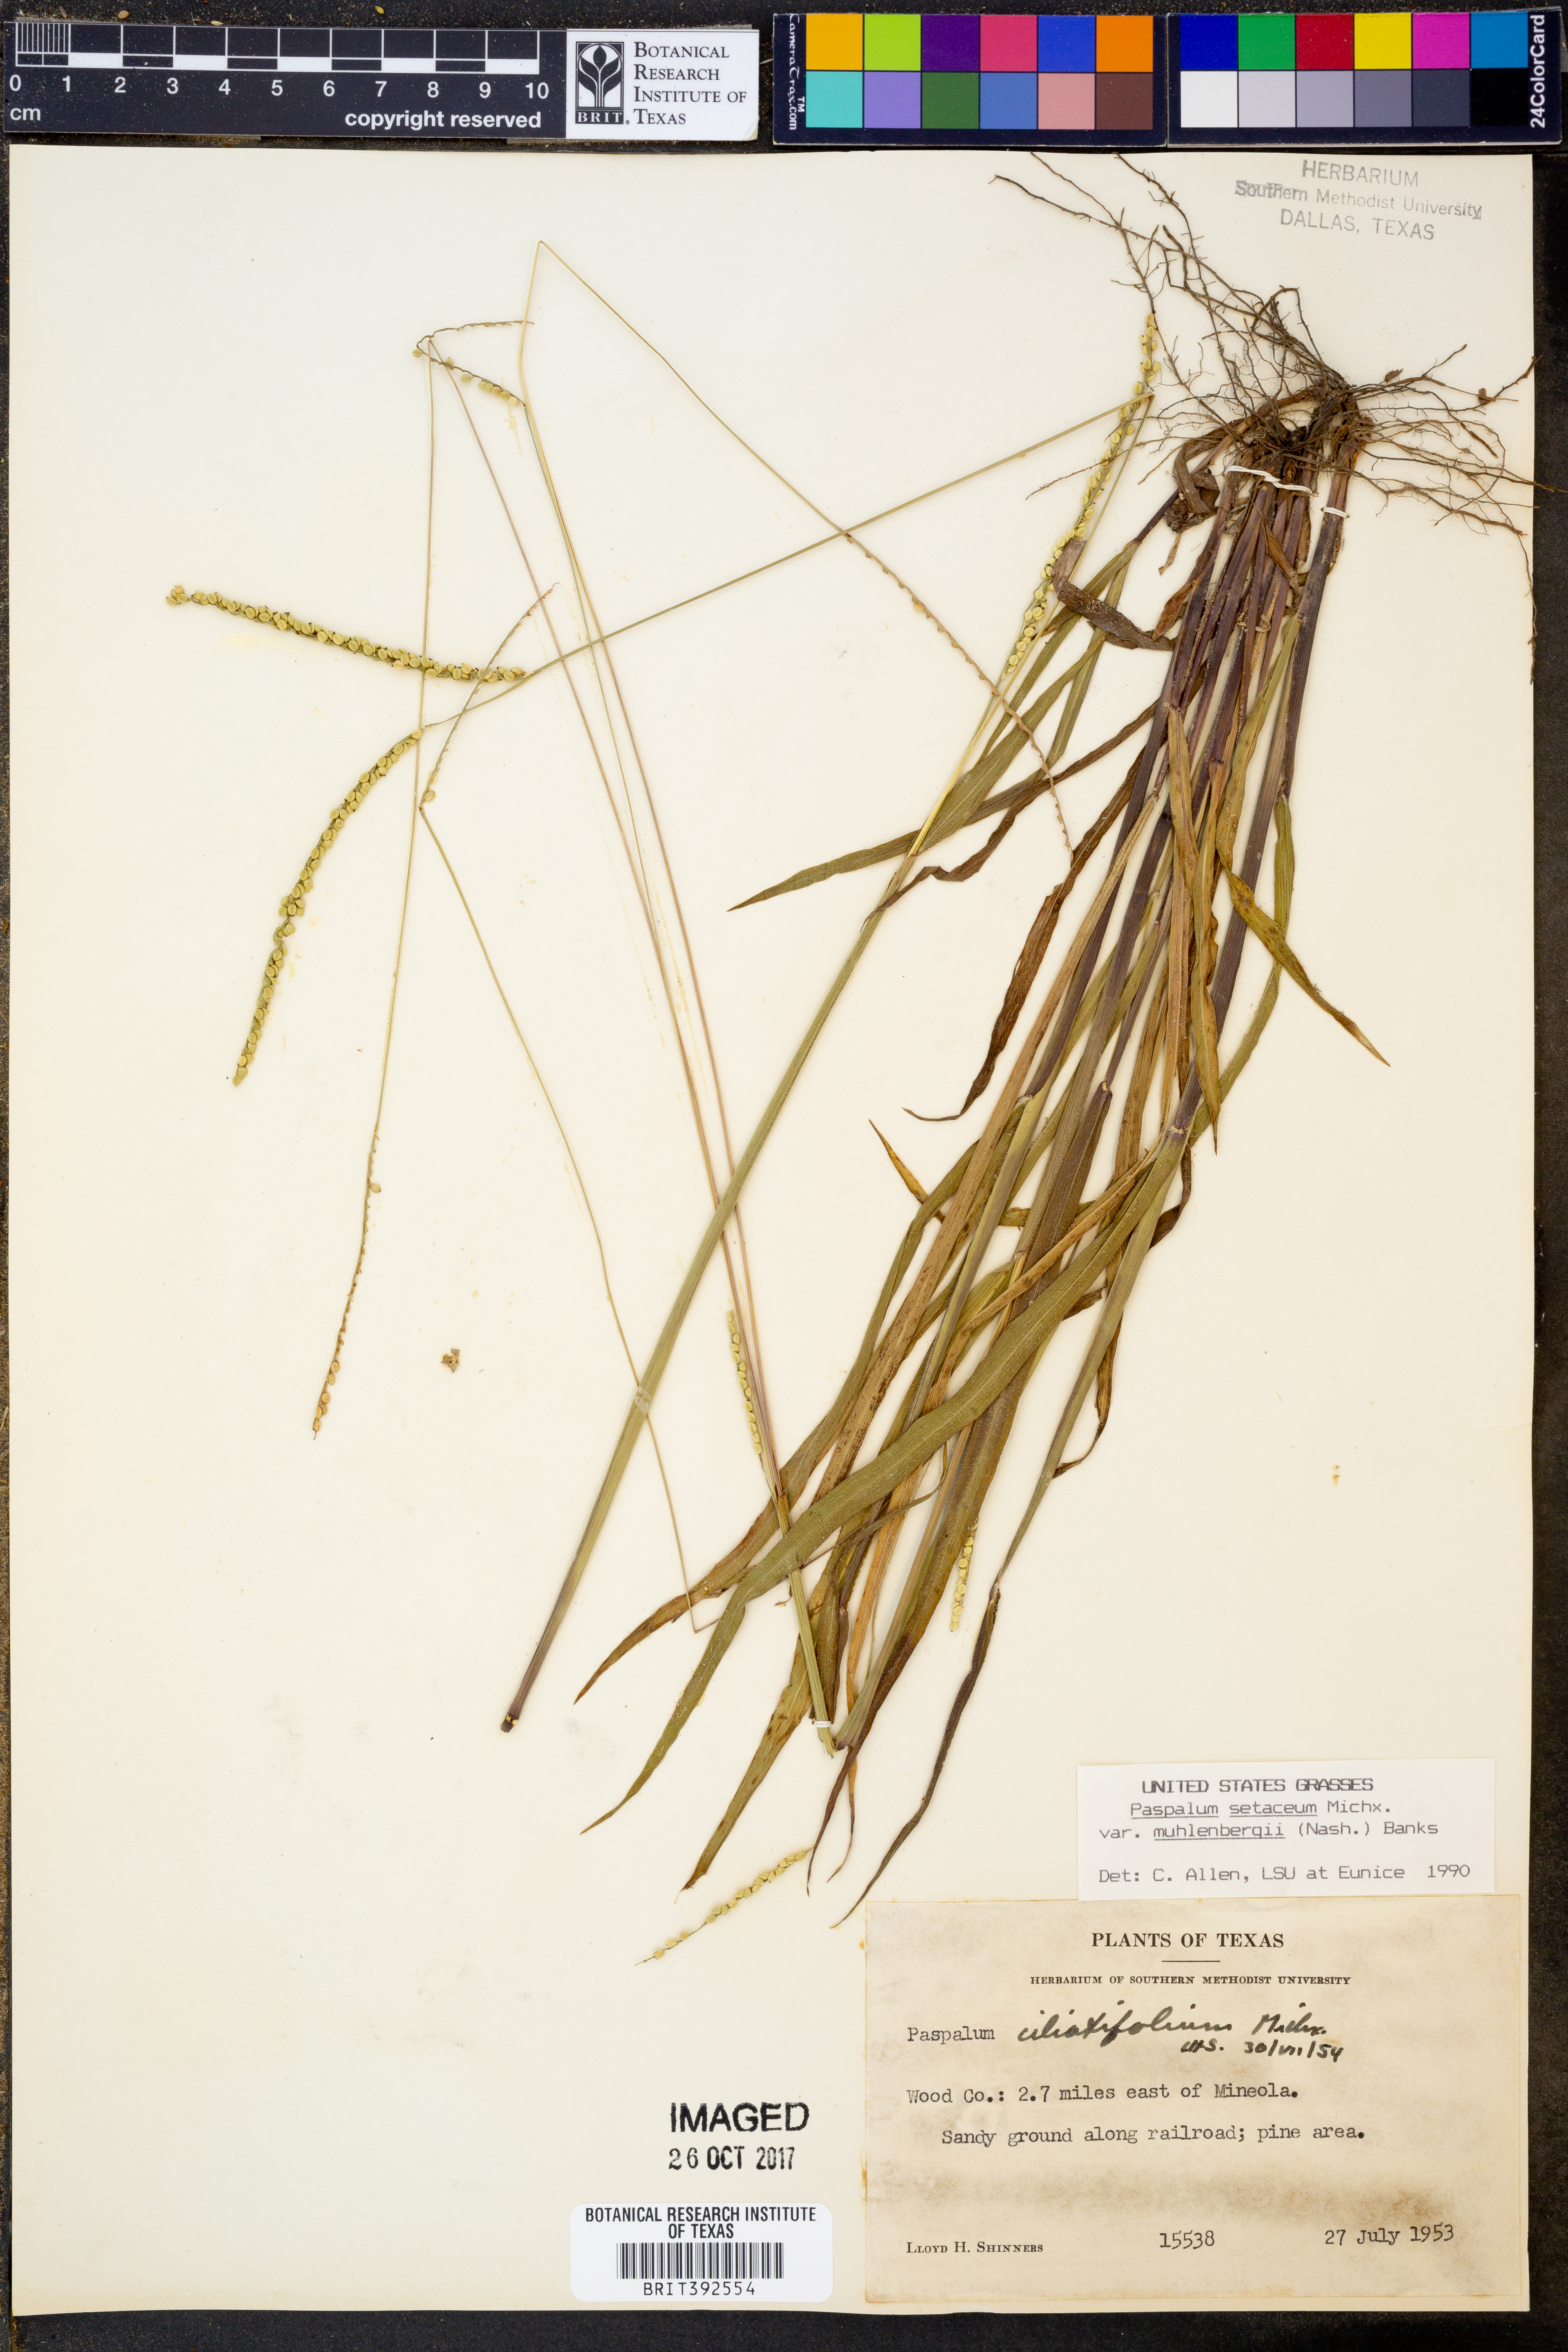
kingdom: Plantae
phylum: Tracheophyta
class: Liliopsida
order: Poales
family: Poaceae
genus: Paspalum
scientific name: Paspalum setaceum
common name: Slender paspalum
